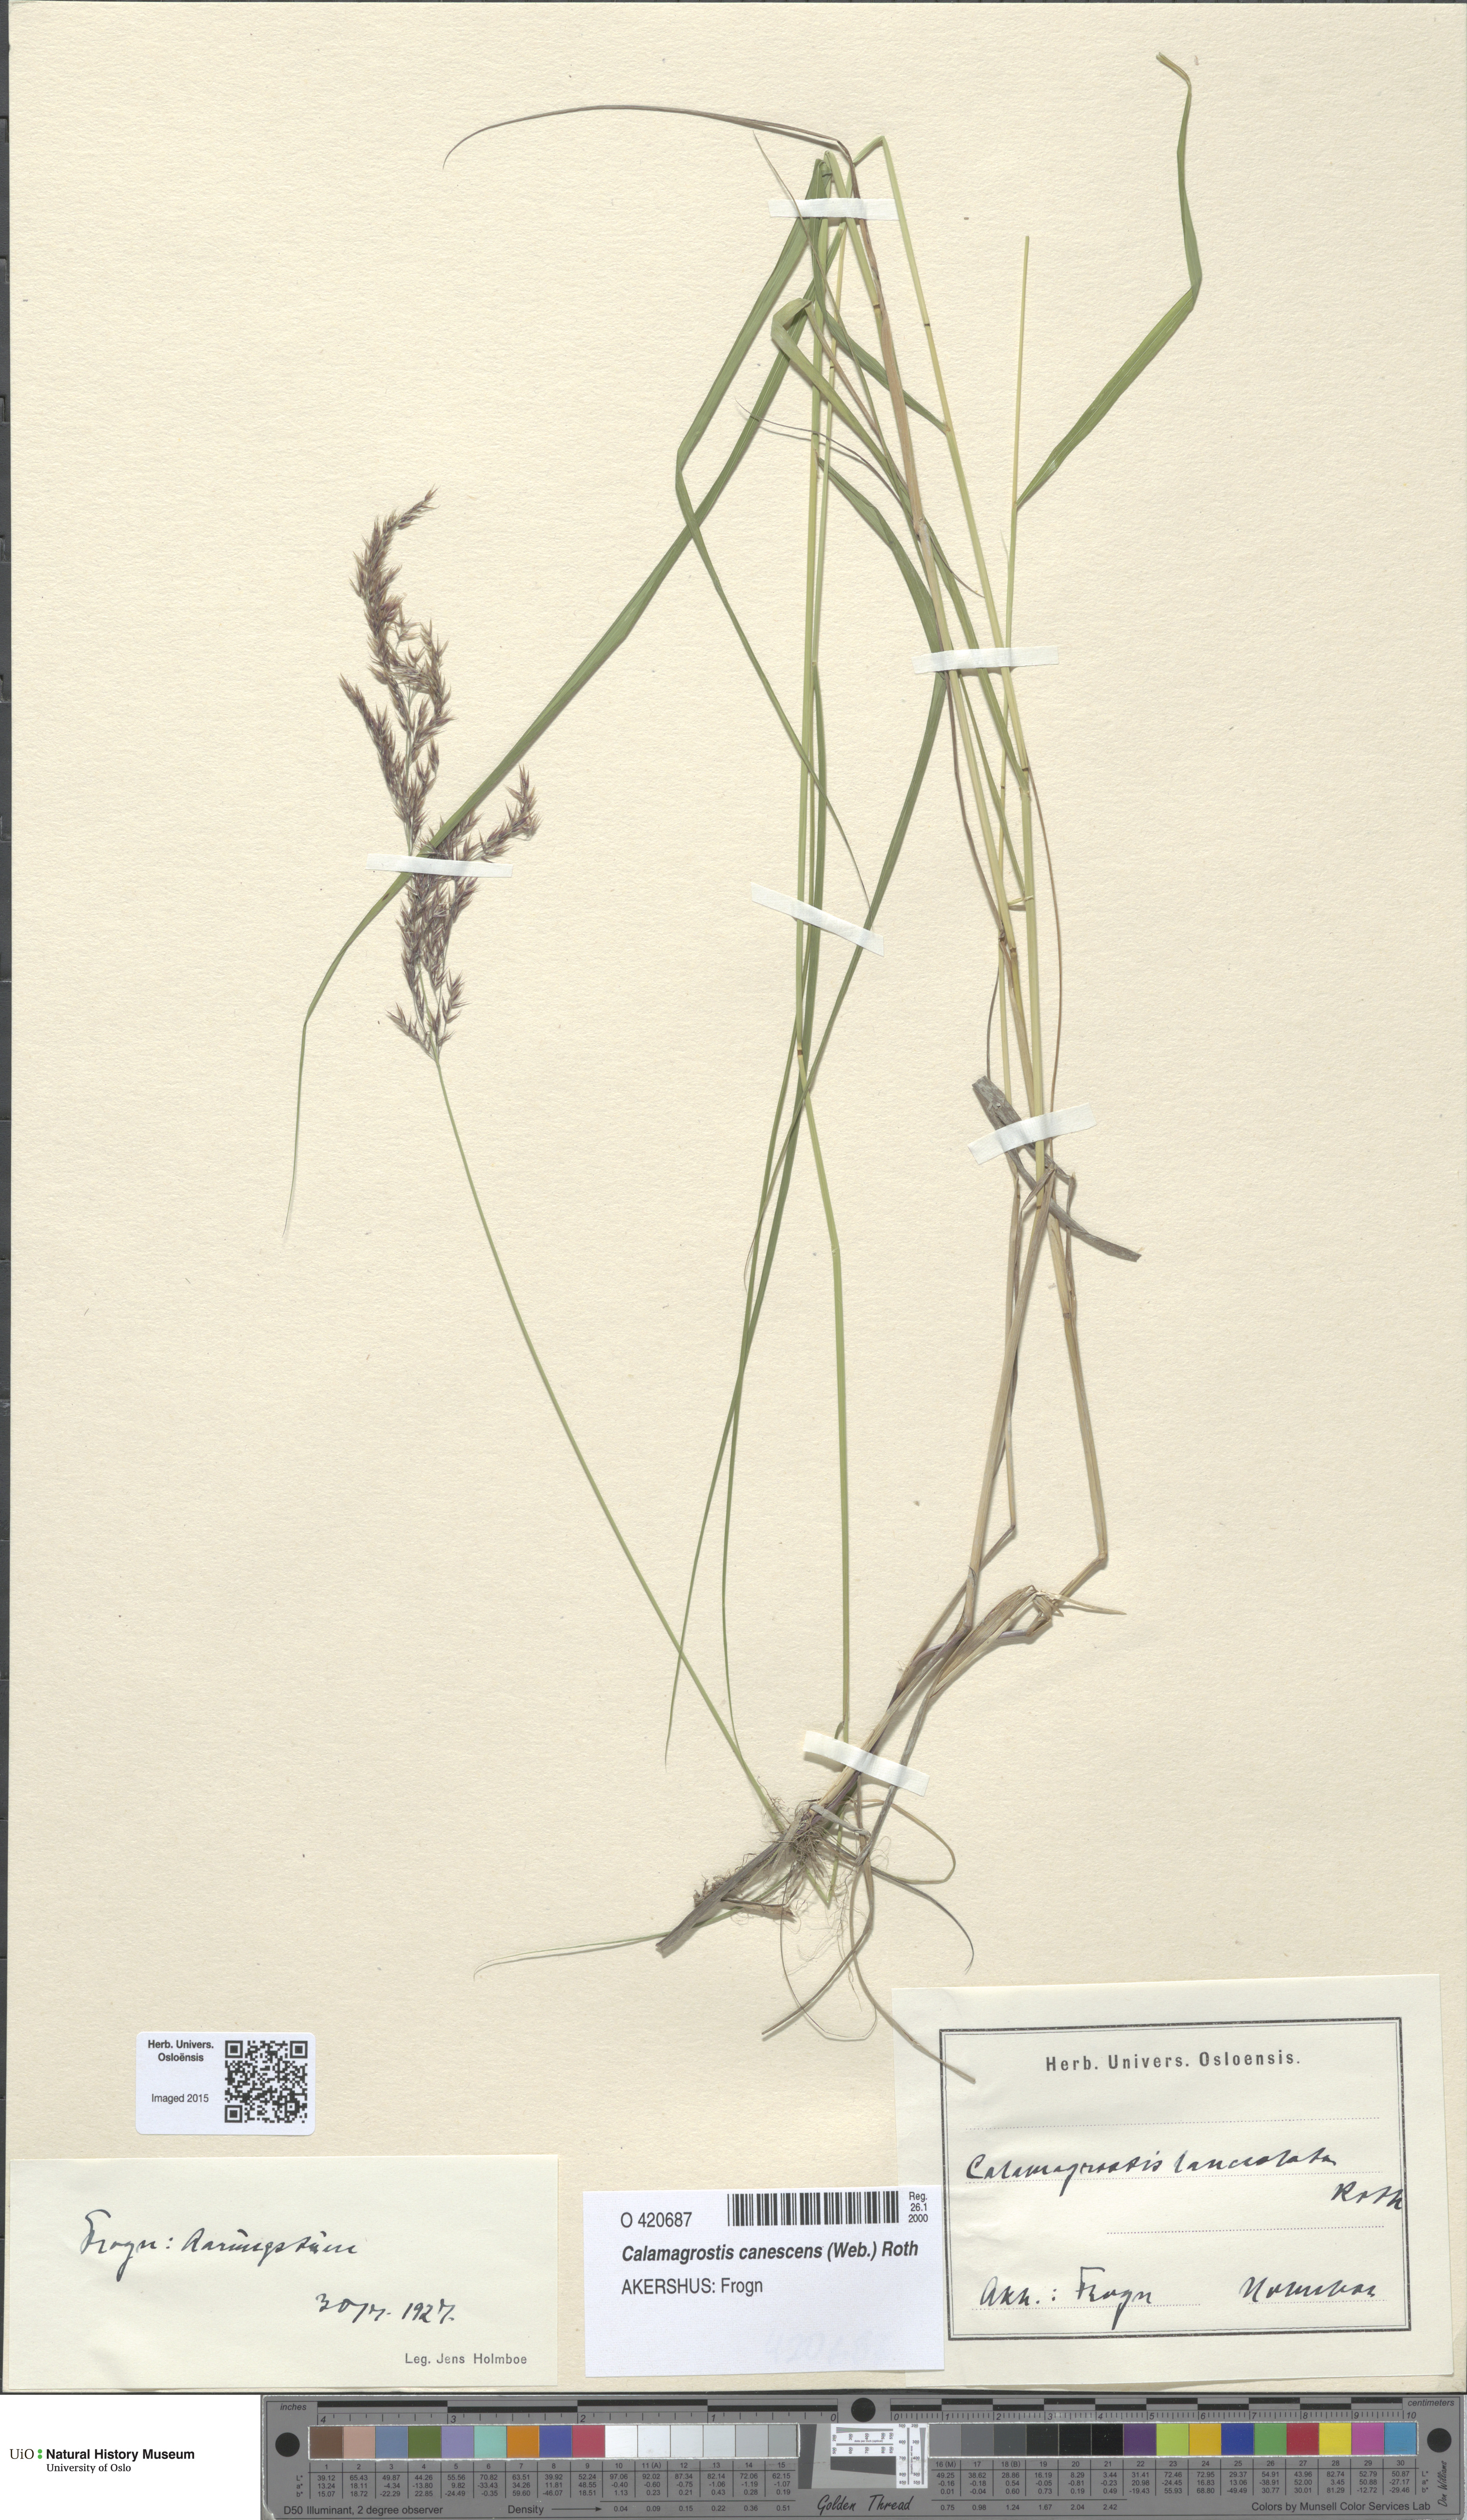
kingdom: Plantae
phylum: Tracheophyta
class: Liliopsida
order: Poales
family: Poaceae
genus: Calamagrostis
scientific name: Calamagrostis canescens
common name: Purple small-reed
